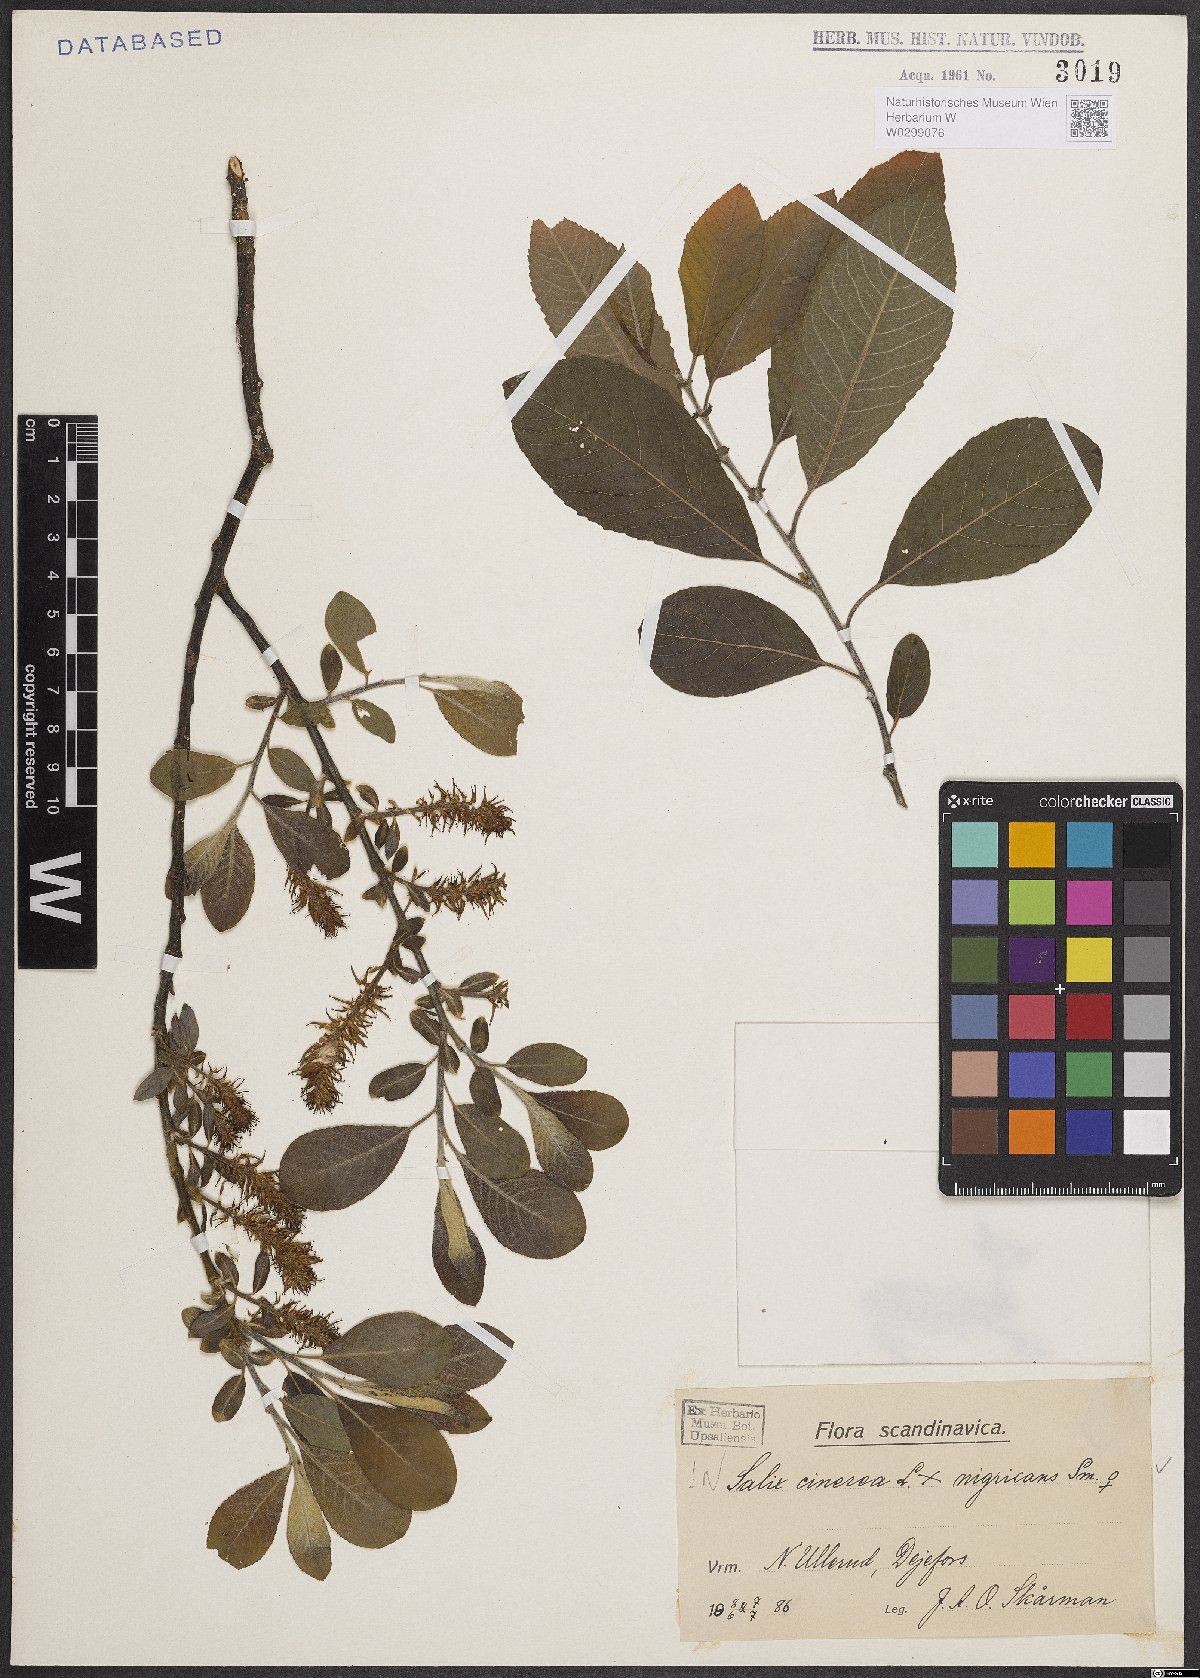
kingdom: Plantae
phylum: Tracheophyta
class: Magnoliopsida
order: Malpighiales
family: Salicaceae
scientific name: Salicaceae
